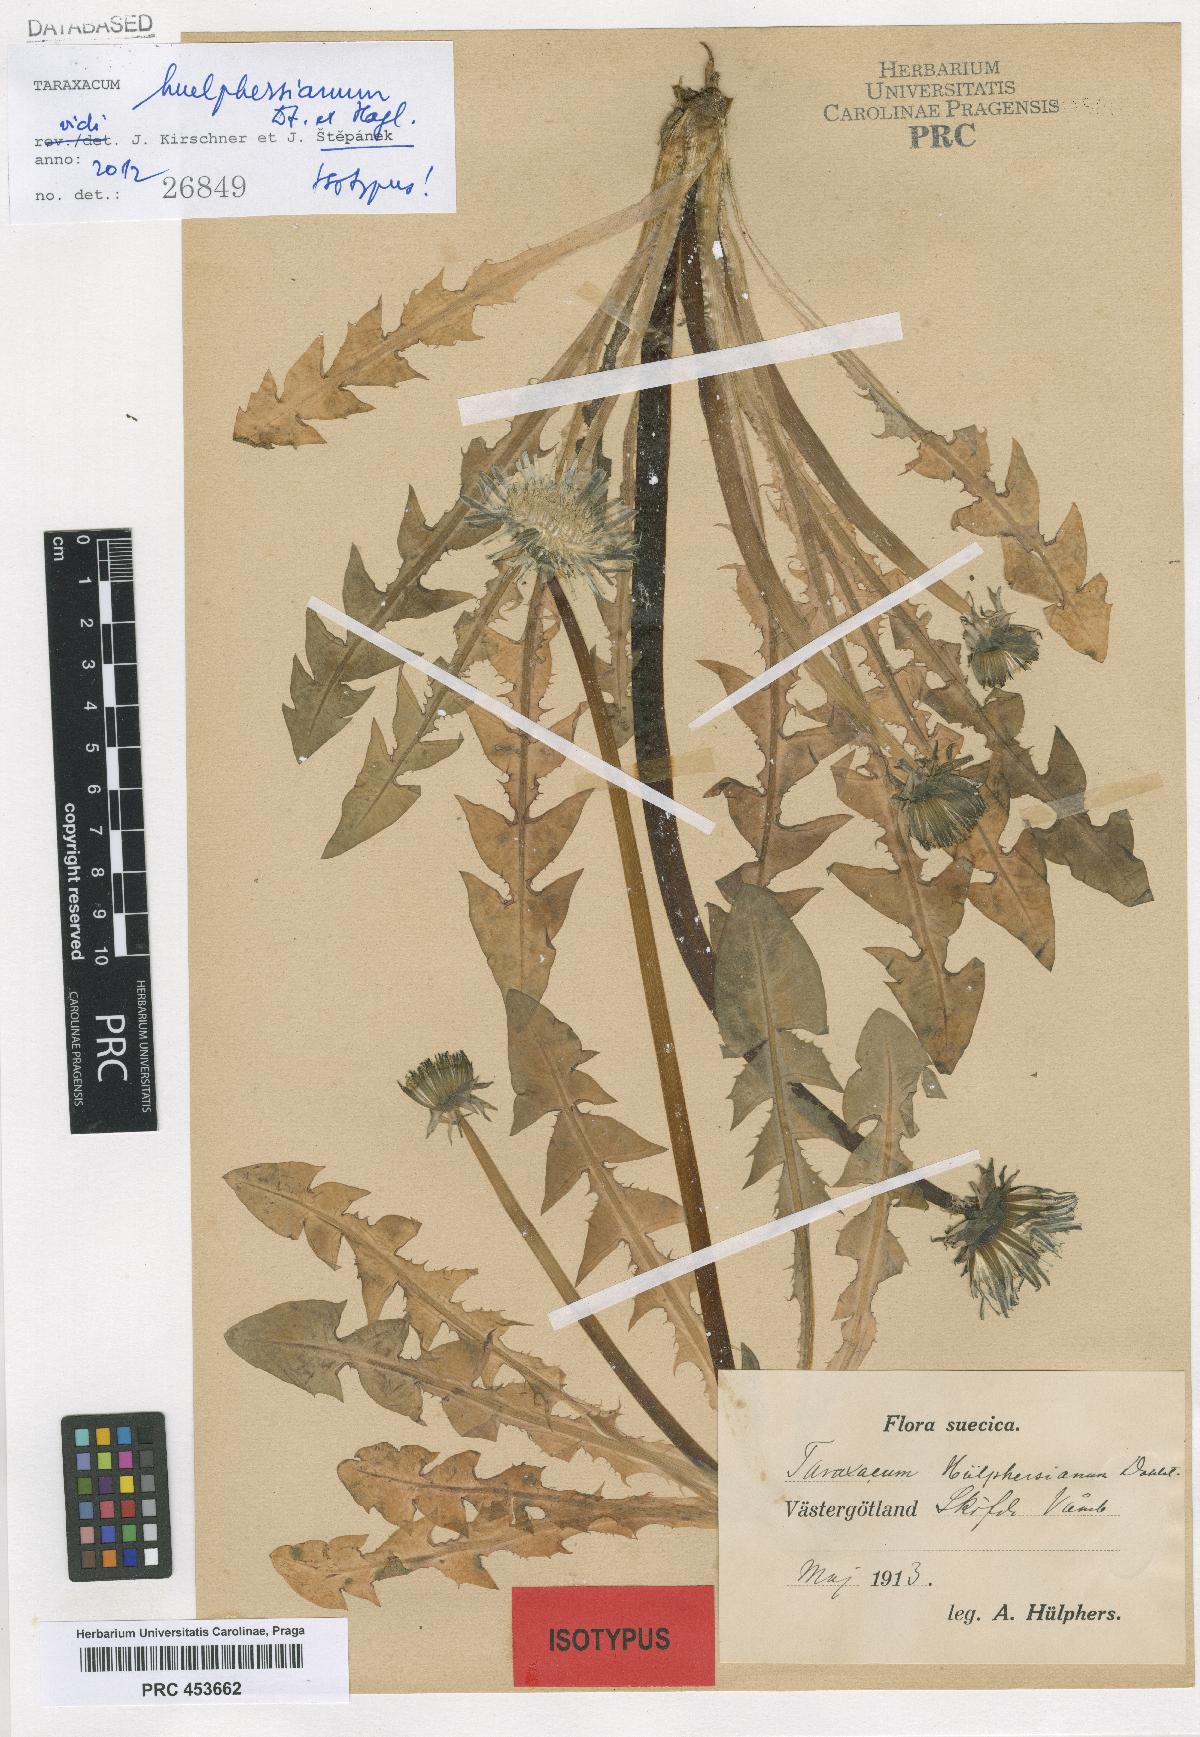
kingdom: Plantae
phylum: Tracheophyta
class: Magnoliopsida
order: Asterales
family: Asteraceae
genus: Taraxacum
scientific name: Taraxacum huelphersianum
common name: Hülphers's dandelion
